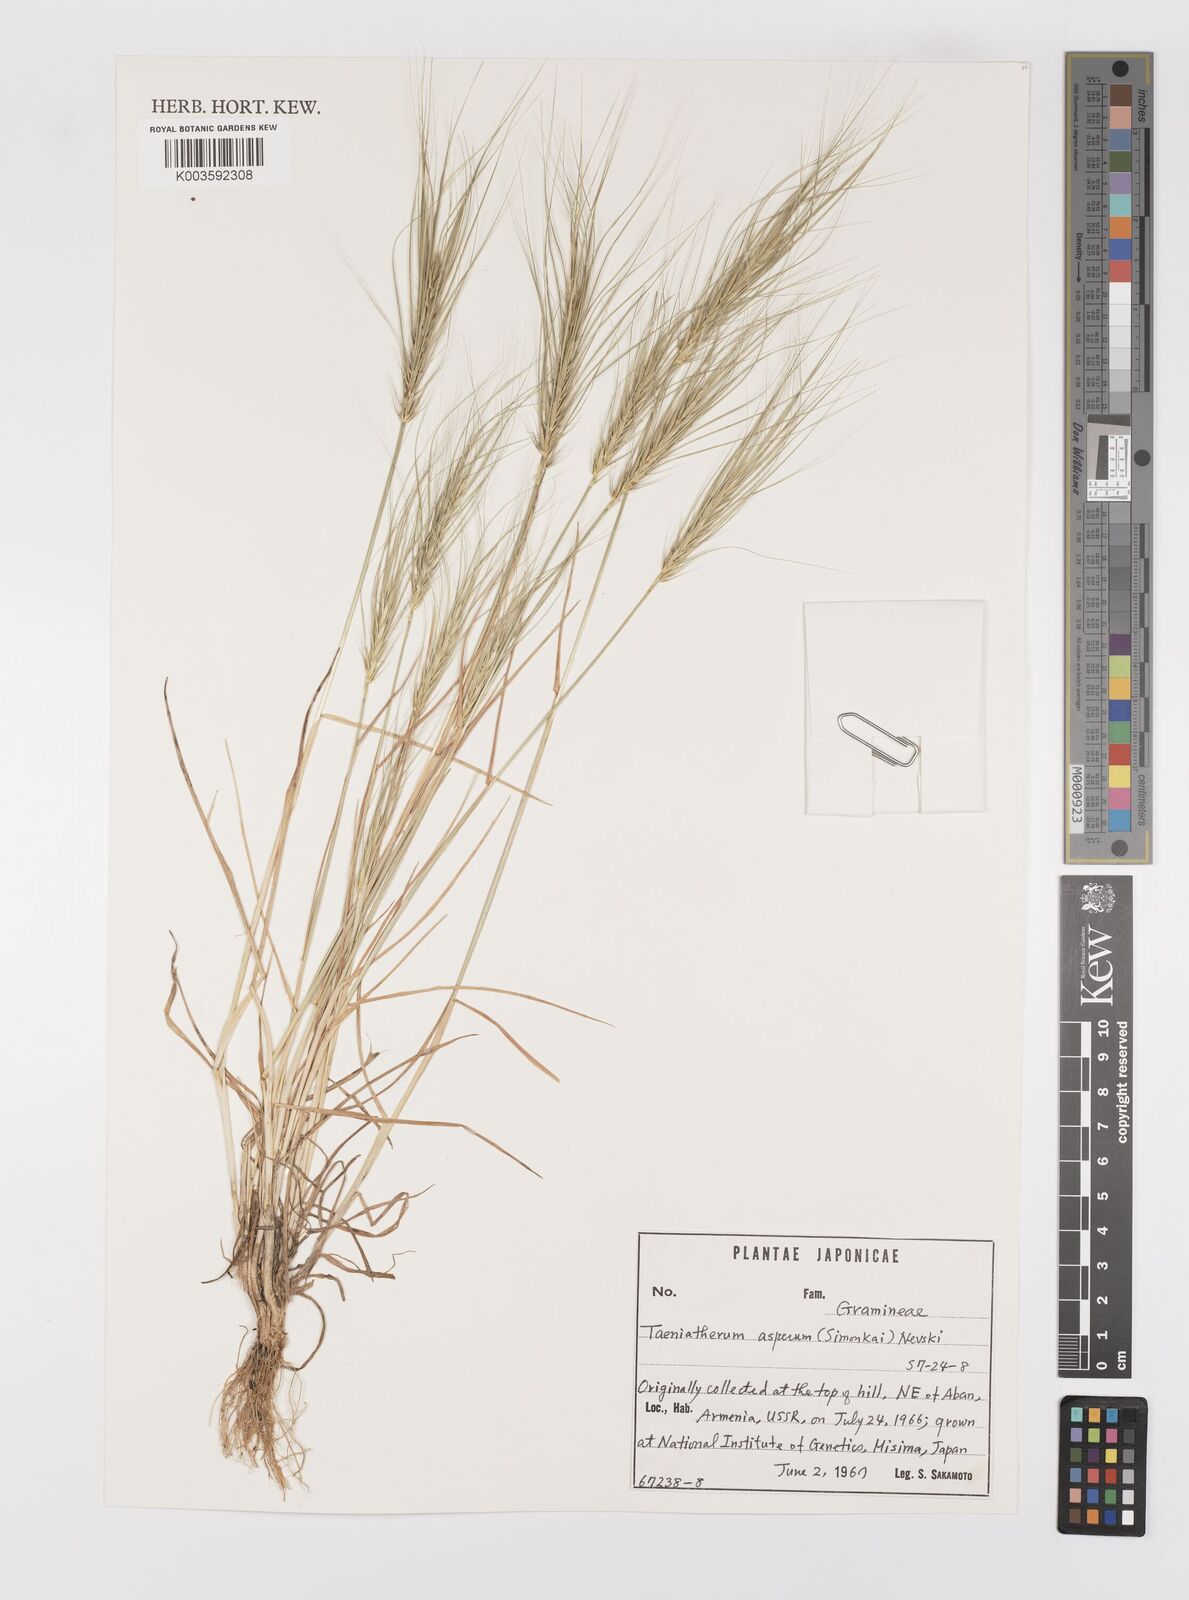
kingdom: Plantae
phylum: Tracheophyta
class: Liliopsida
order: Poales
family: Poaceae
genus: Taeniatherum
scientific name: Taeniatherum caput-medusae
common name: Medusahead
